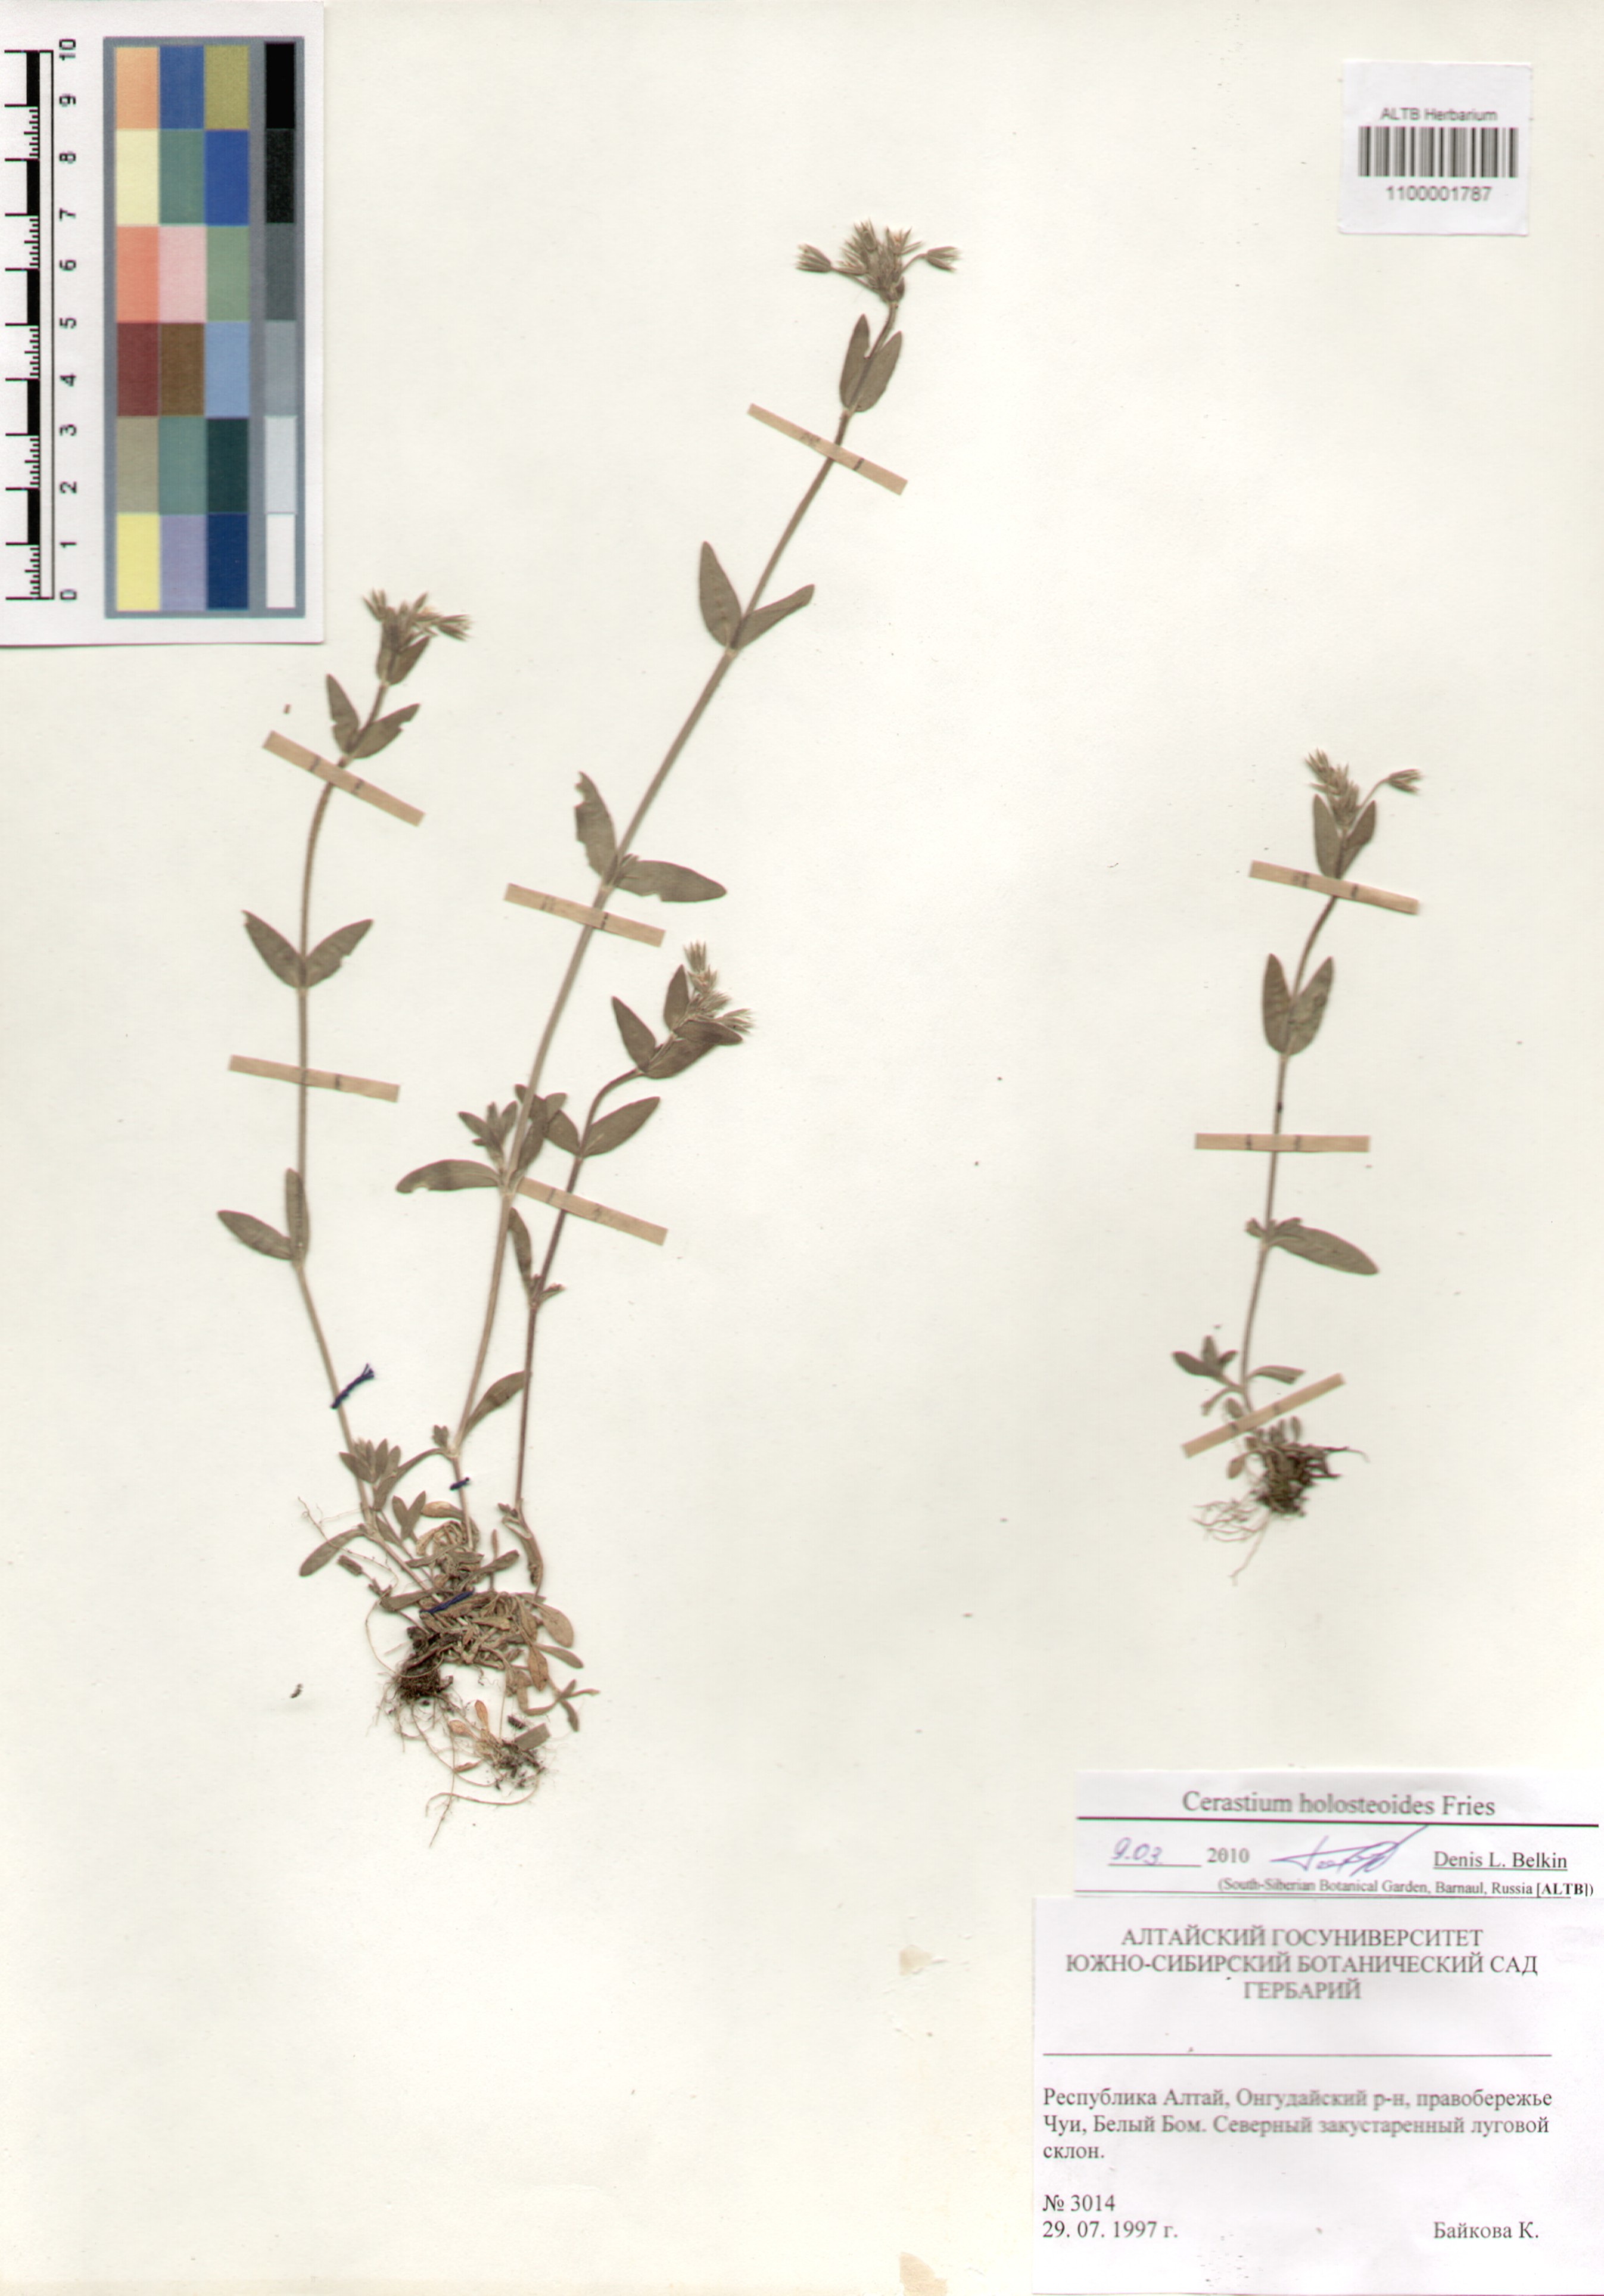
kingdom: Plantae
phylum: Tracheophyta
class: Magnoliopsida
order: Caryophyllales
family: Caryophyllaceae
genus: Cerastium
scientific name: Cerastium holosteoides
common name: Big chickweed
